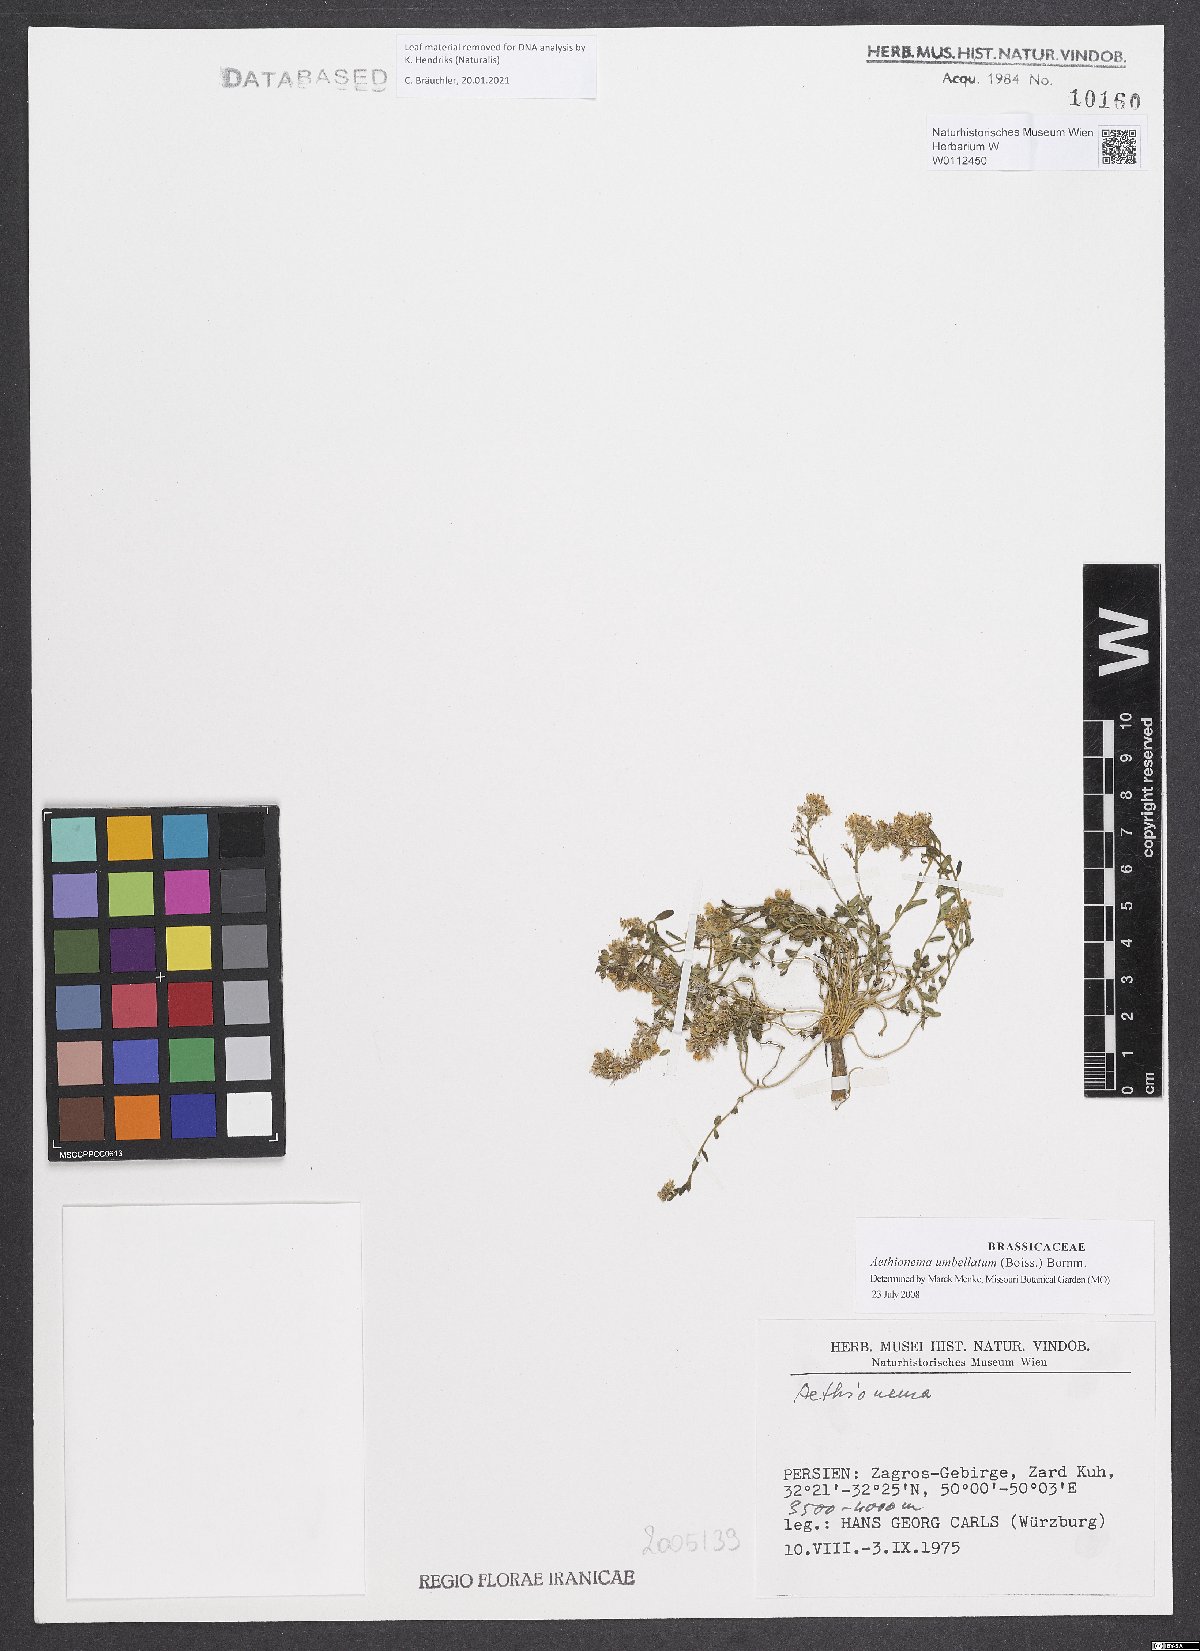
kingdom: Plantae
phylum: Tracheophyta
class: Magnoliopsida
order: Brassicales
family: Brassicaceae
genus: Aethionema
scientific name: Aethionema umbellatum
